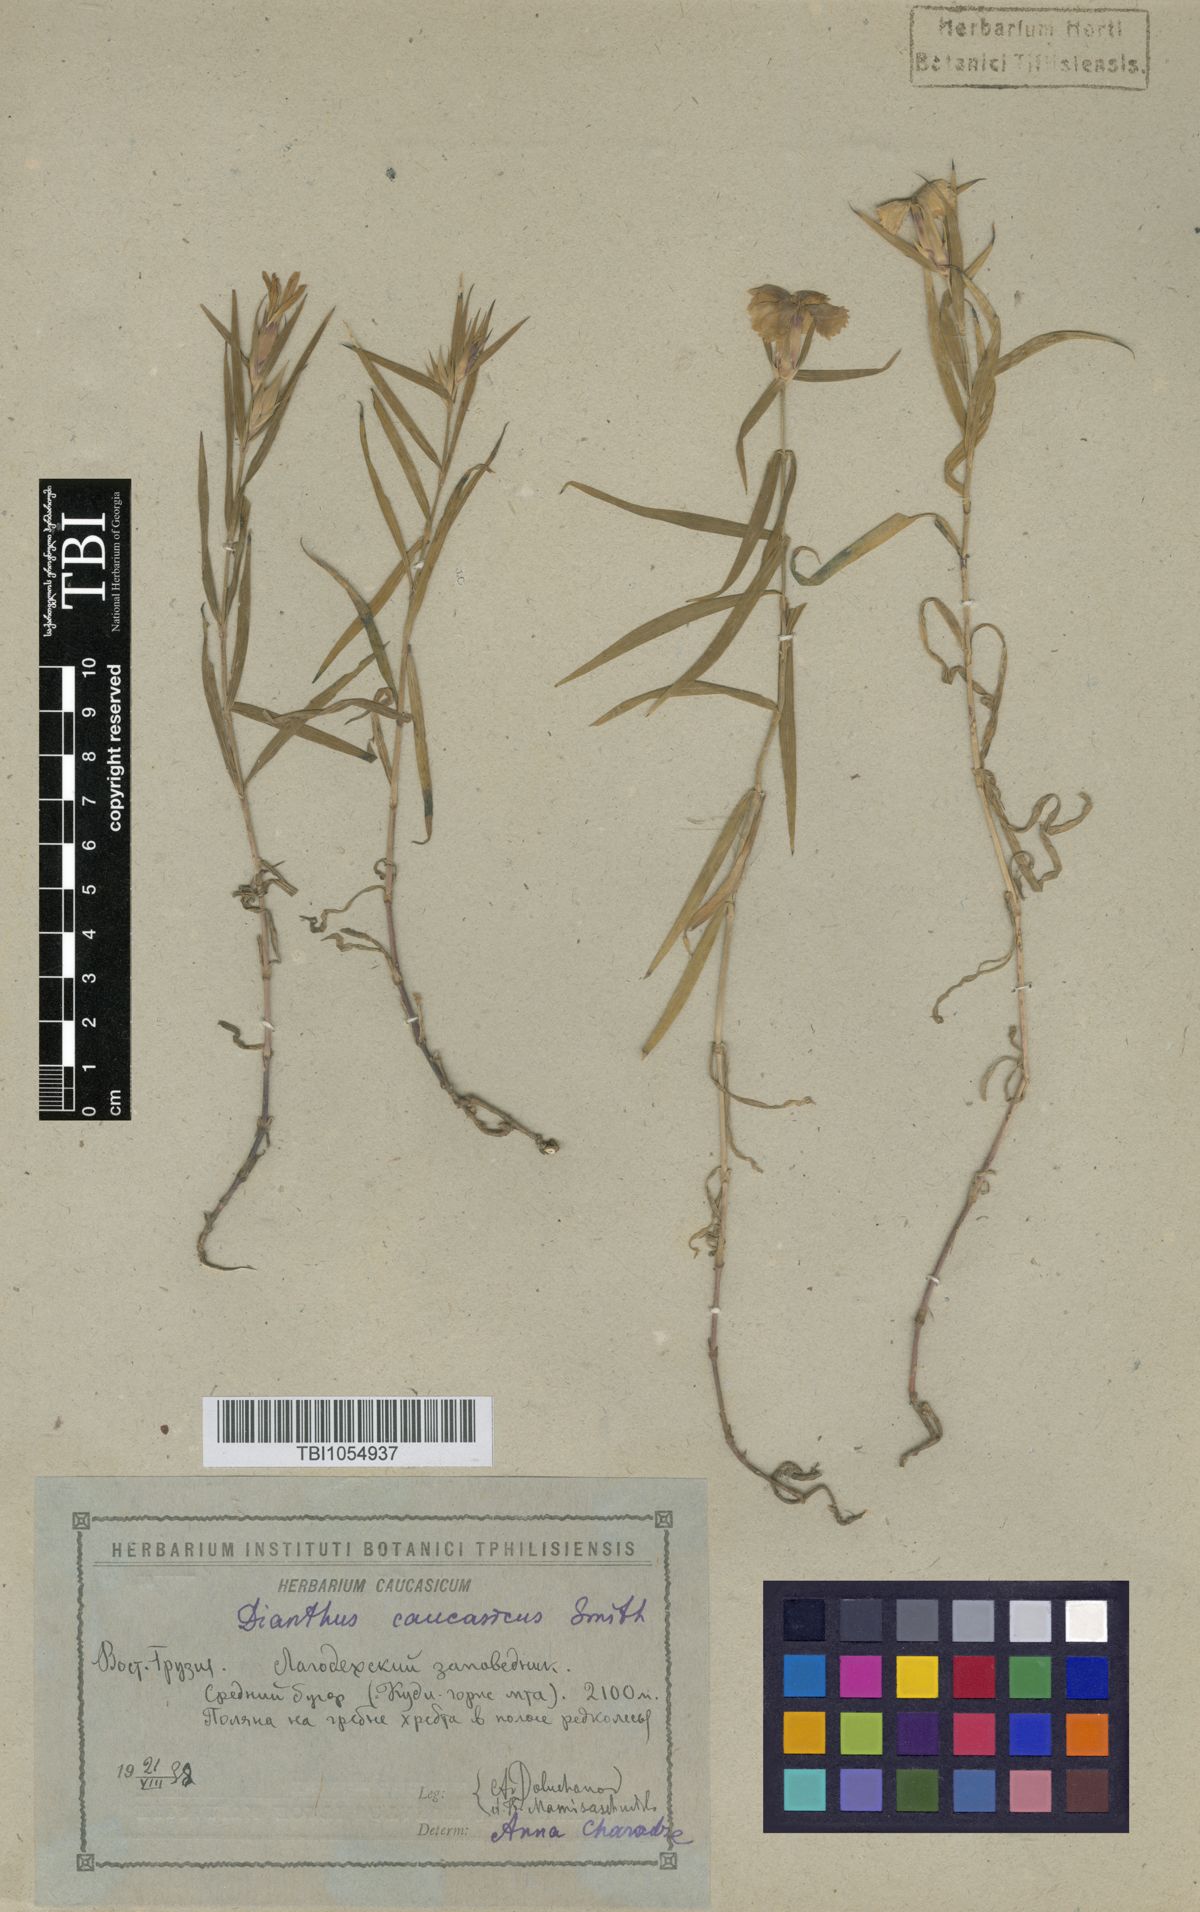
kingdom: Plantae
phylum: Tracheophyta
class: Magnoliopsida
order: Caryophyllales
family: Caryophyllaceae
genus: Dianthus
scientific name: Dianthus caucaseus
